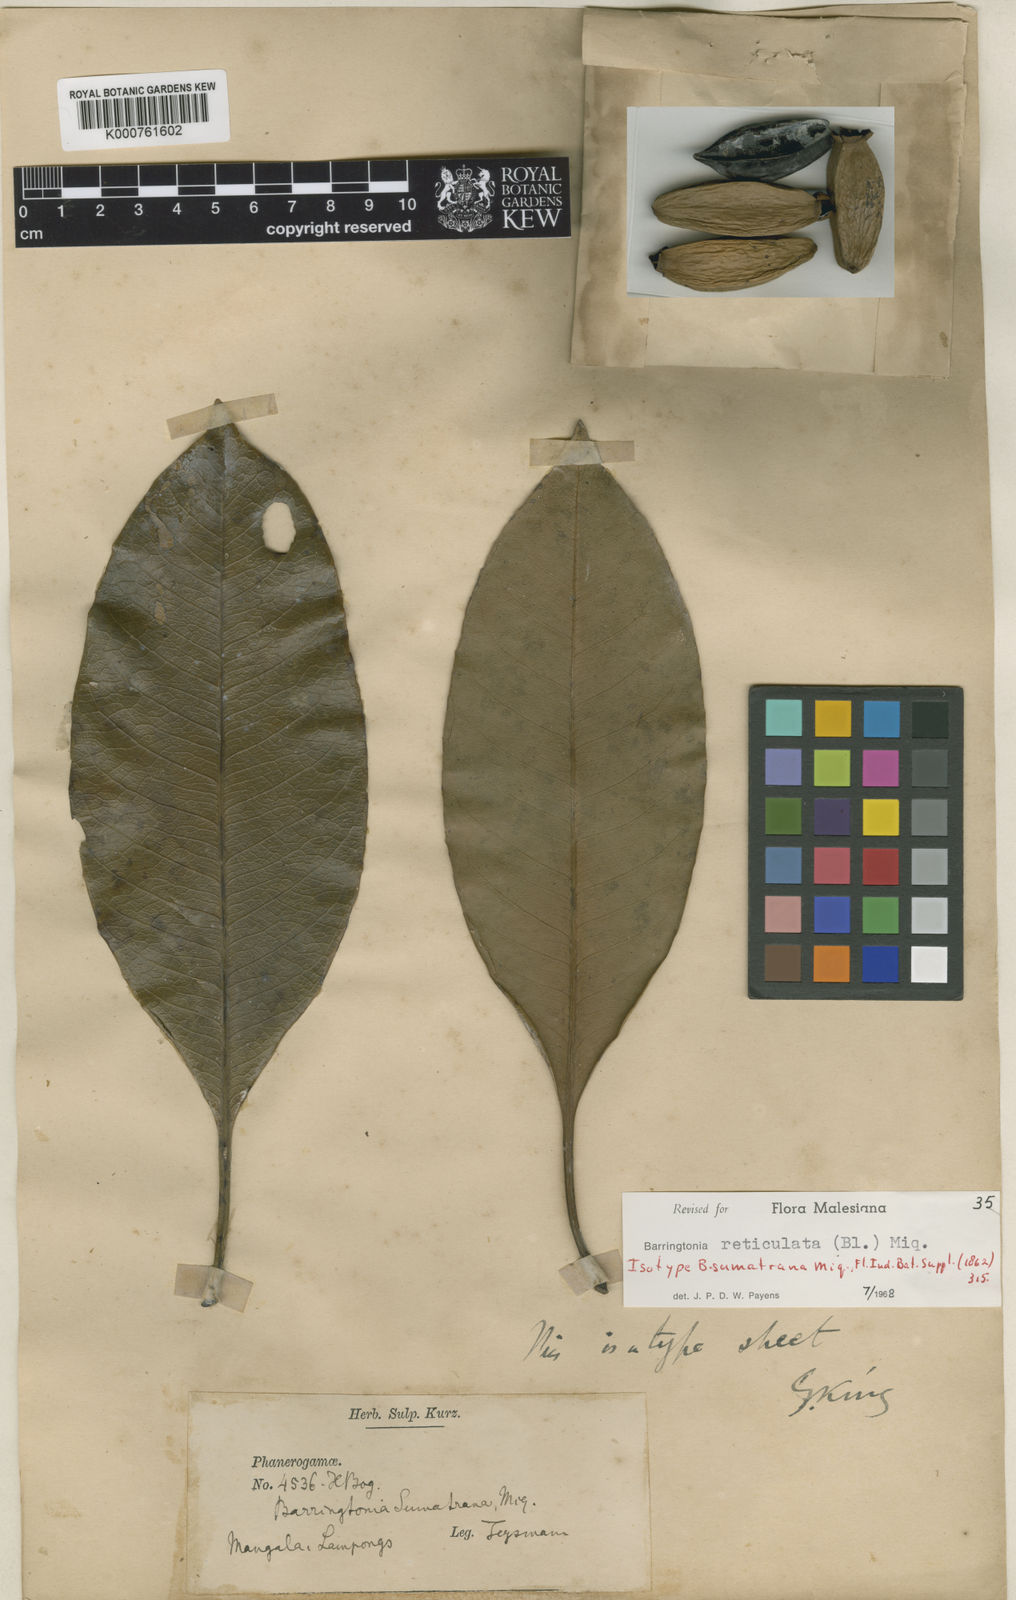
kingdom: Plantae
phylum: Tracheophyta
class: Magnoliopsida
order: Ericales
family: Lecythidaceae
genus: Barringtonia
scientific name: Barringtonia reticulata
